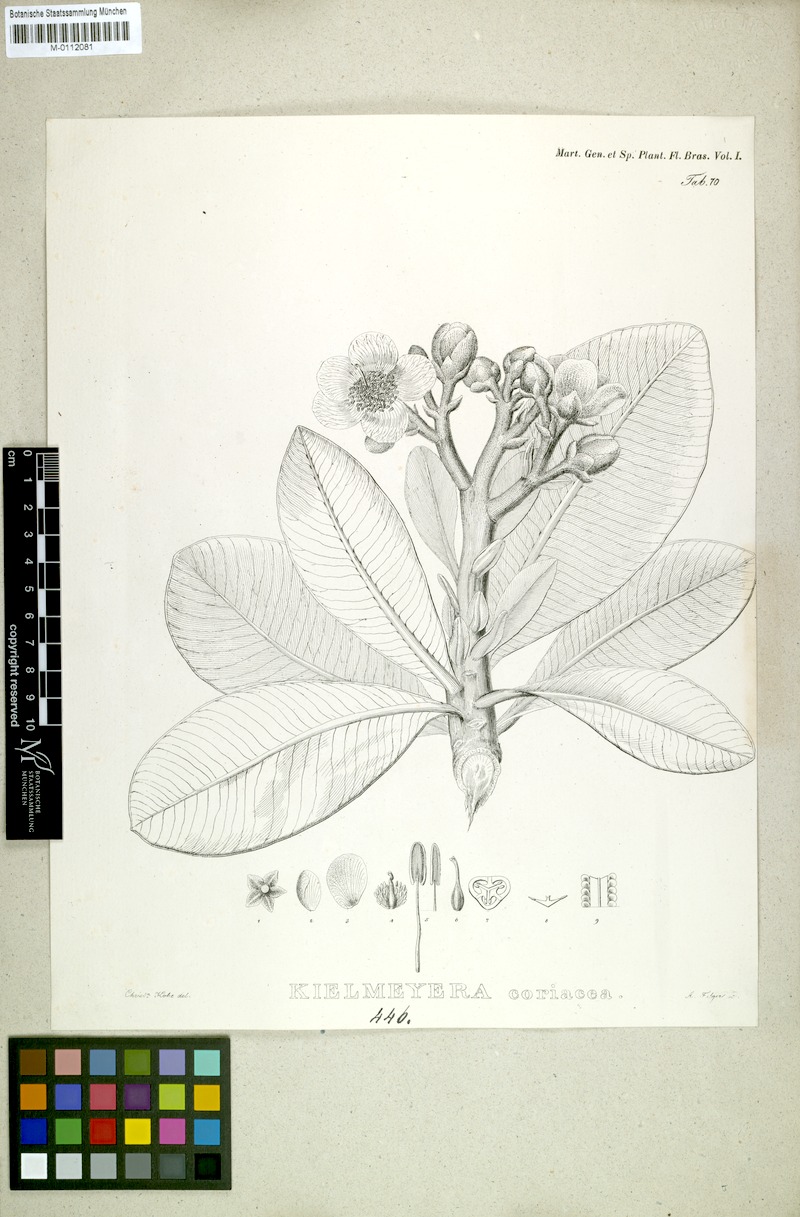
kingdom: Plantae
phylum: Tracheophyta
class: Magnoliopsida
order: Malpighiales
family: Calophyllaceae
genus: Kielmeyera
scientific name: Kielmeyera coriacea
